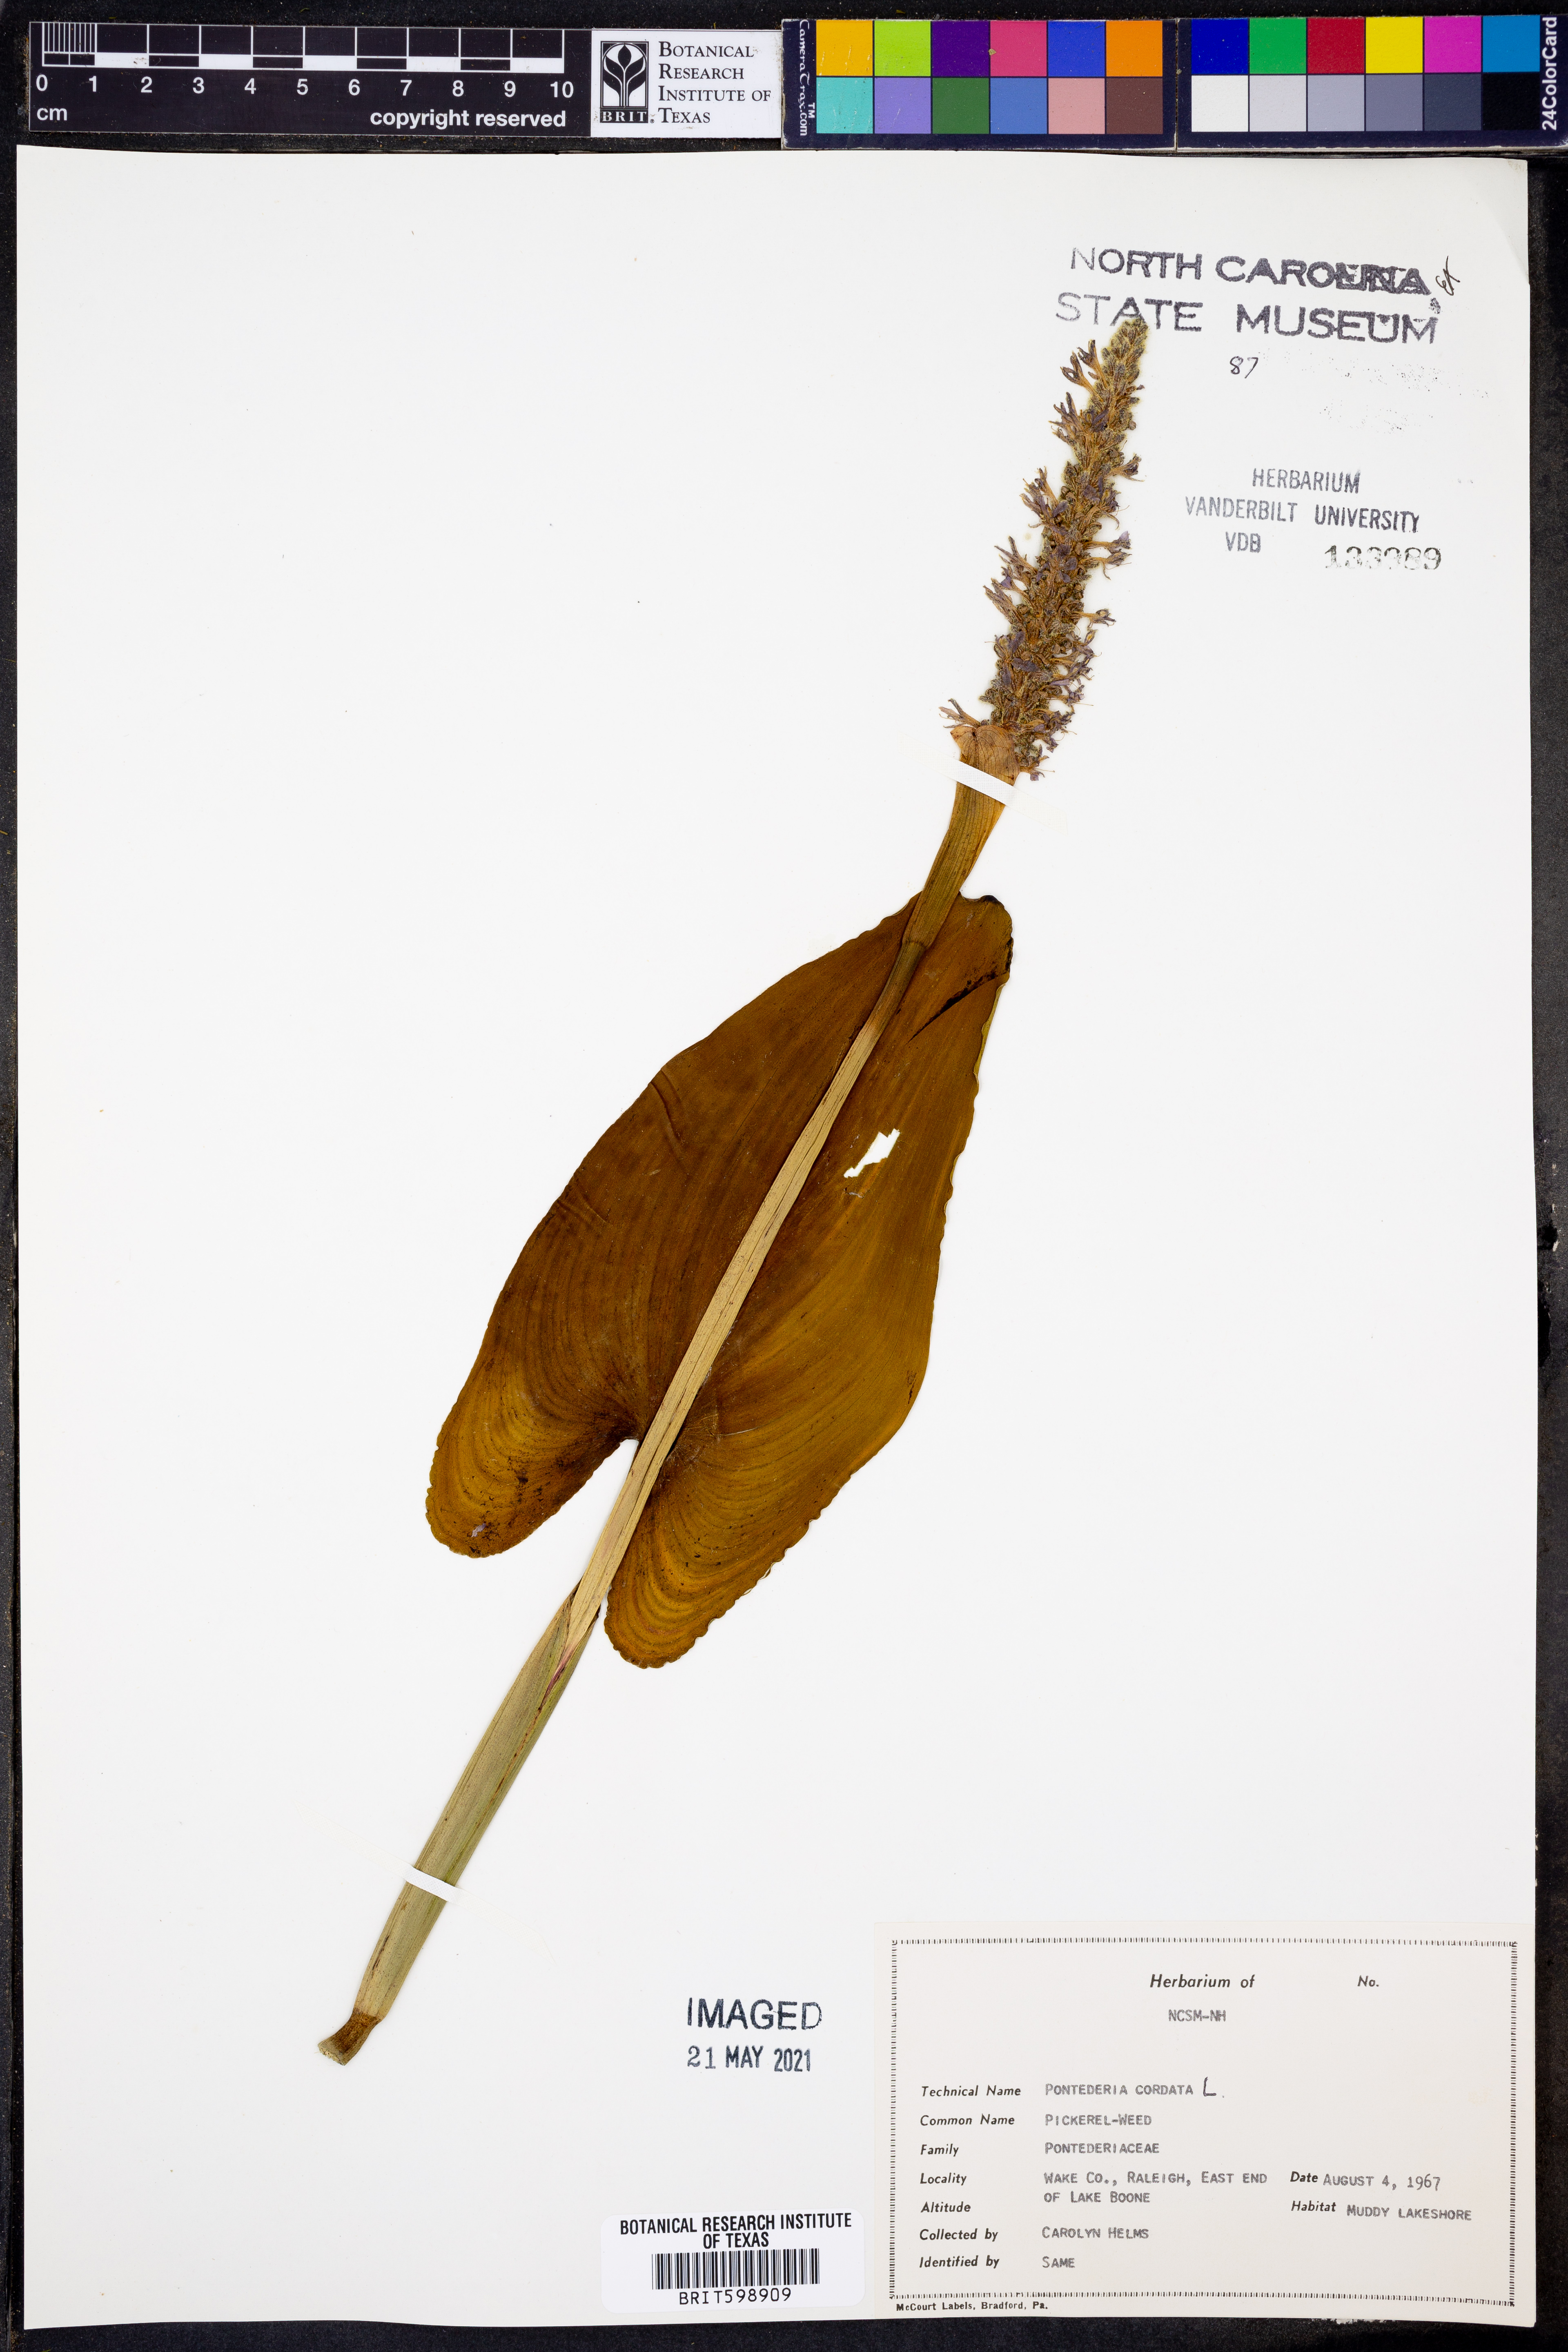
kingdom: Plantae
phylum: Tracheophyta
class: Liliopsida
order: Commelinales
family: Pontederiaceae
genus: Pontederia
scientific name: Pontederia cordata
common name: Pickerelweed
